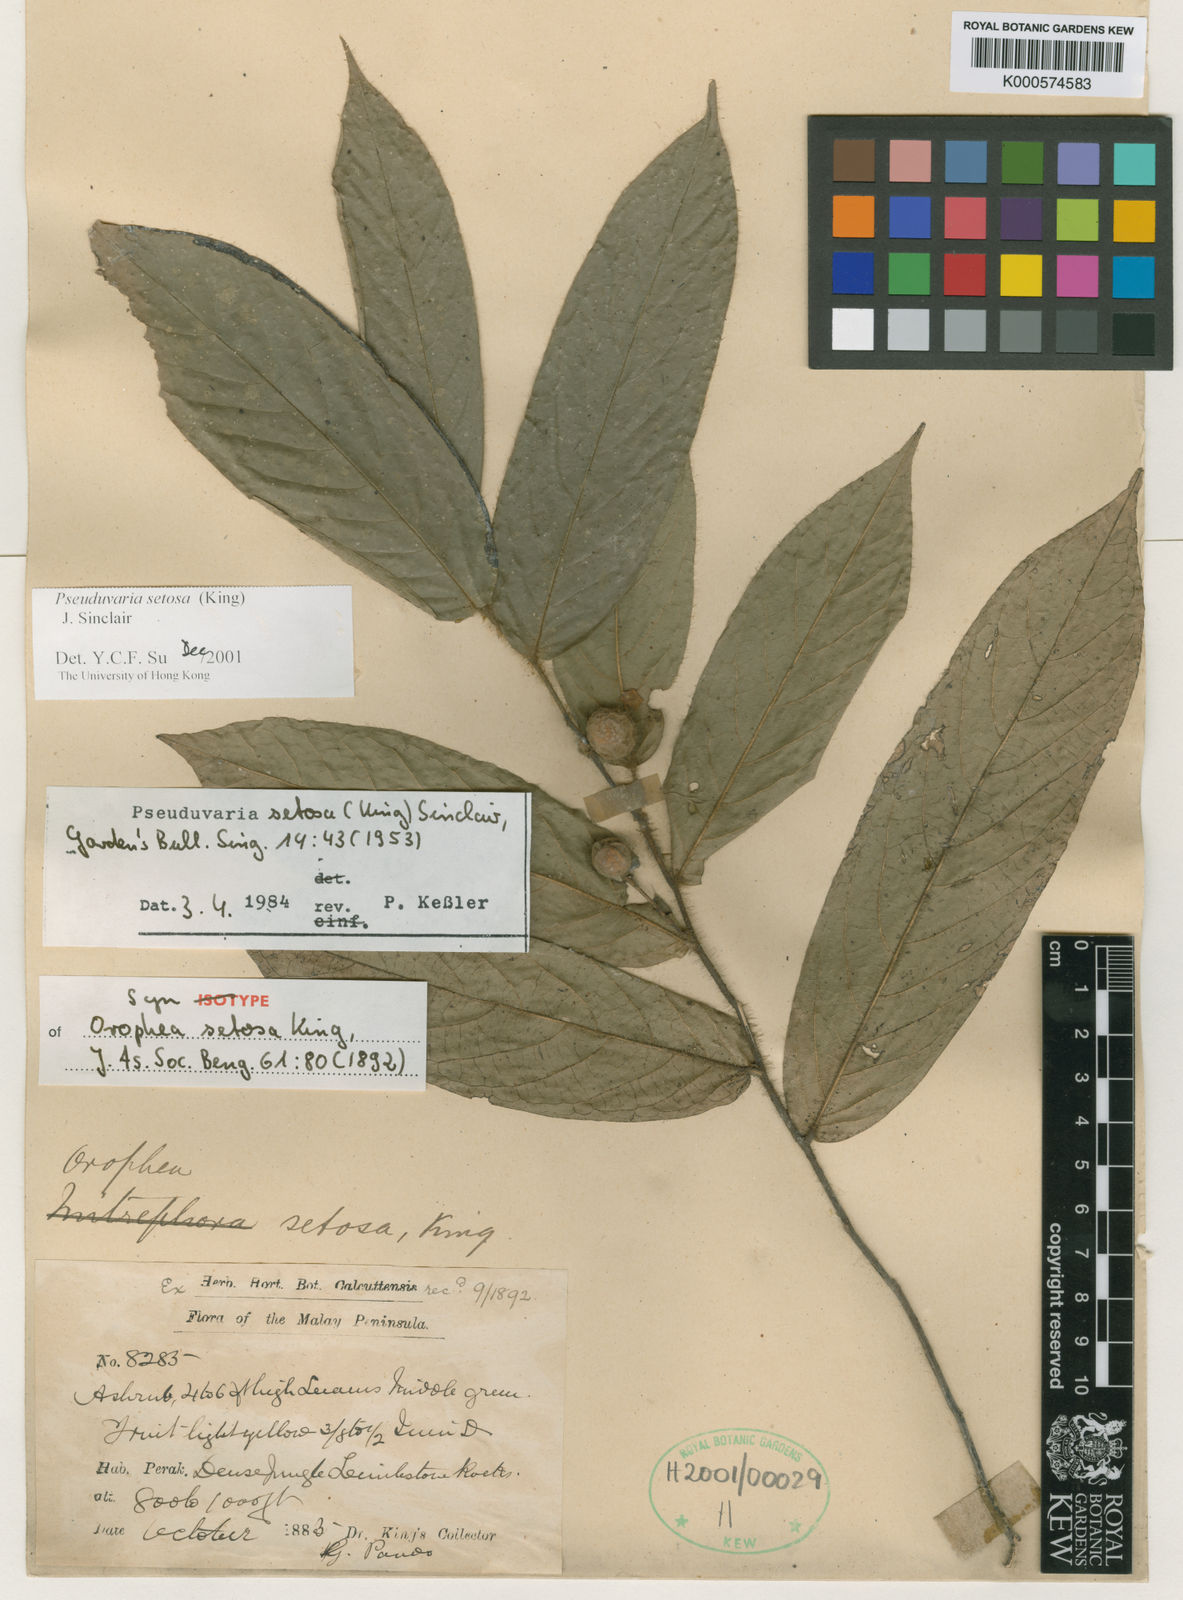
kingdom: Plantae
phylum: Tracheophyta
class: Magnoliopsida
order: Magnoliales
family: Annonaceae
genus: Pseuduvaria
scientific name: Pseuduvaria setosa
